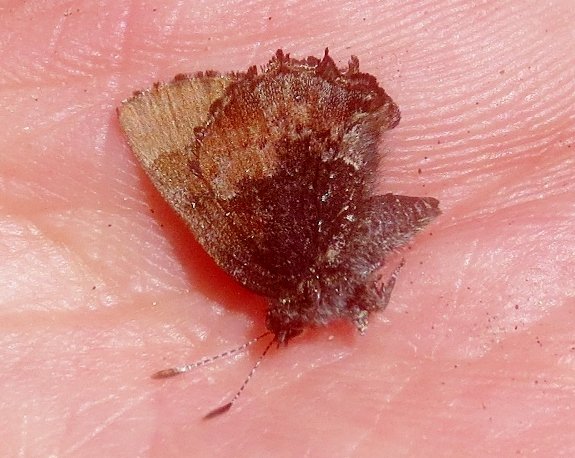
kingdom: Animalia
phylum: Arthropoda
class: Insecta
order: Lepidoptera
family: Lycaenidae
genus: Incisalia
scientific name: Incisalia henrici
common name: Henry's Elfin
